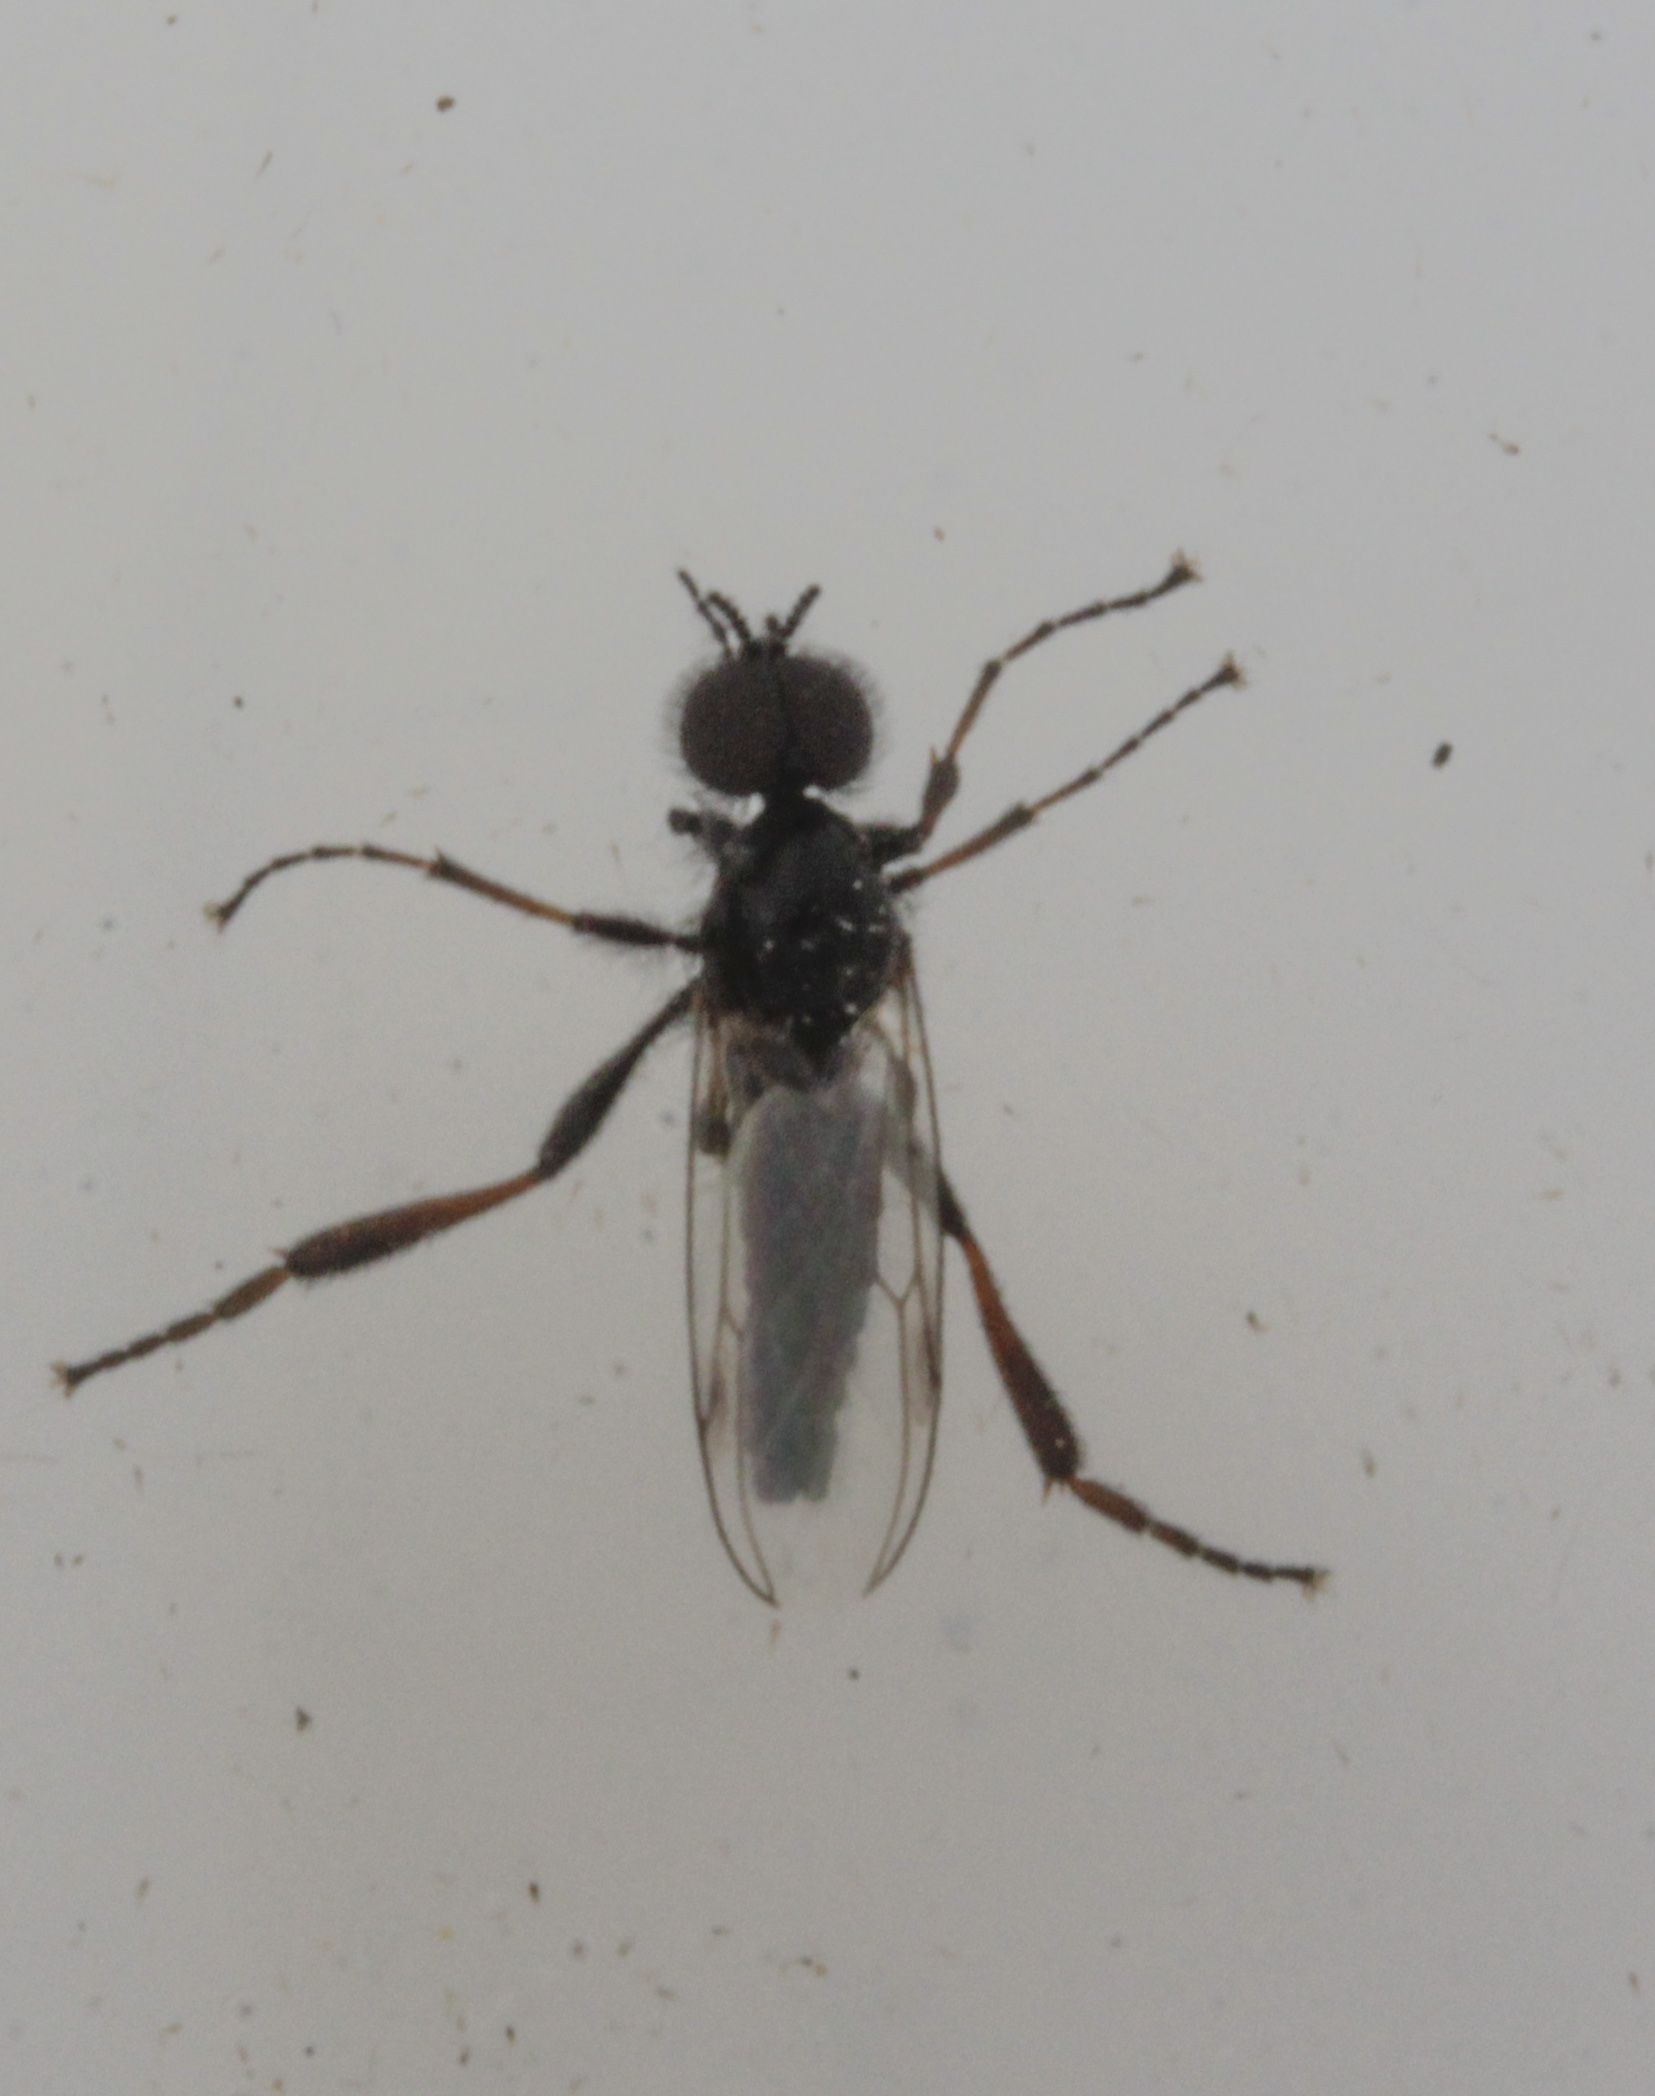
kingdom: Animalia
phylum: Arthropoda
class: Insecta
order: Diptera
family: Bibionidae
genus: Bibio
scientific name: Bibio
